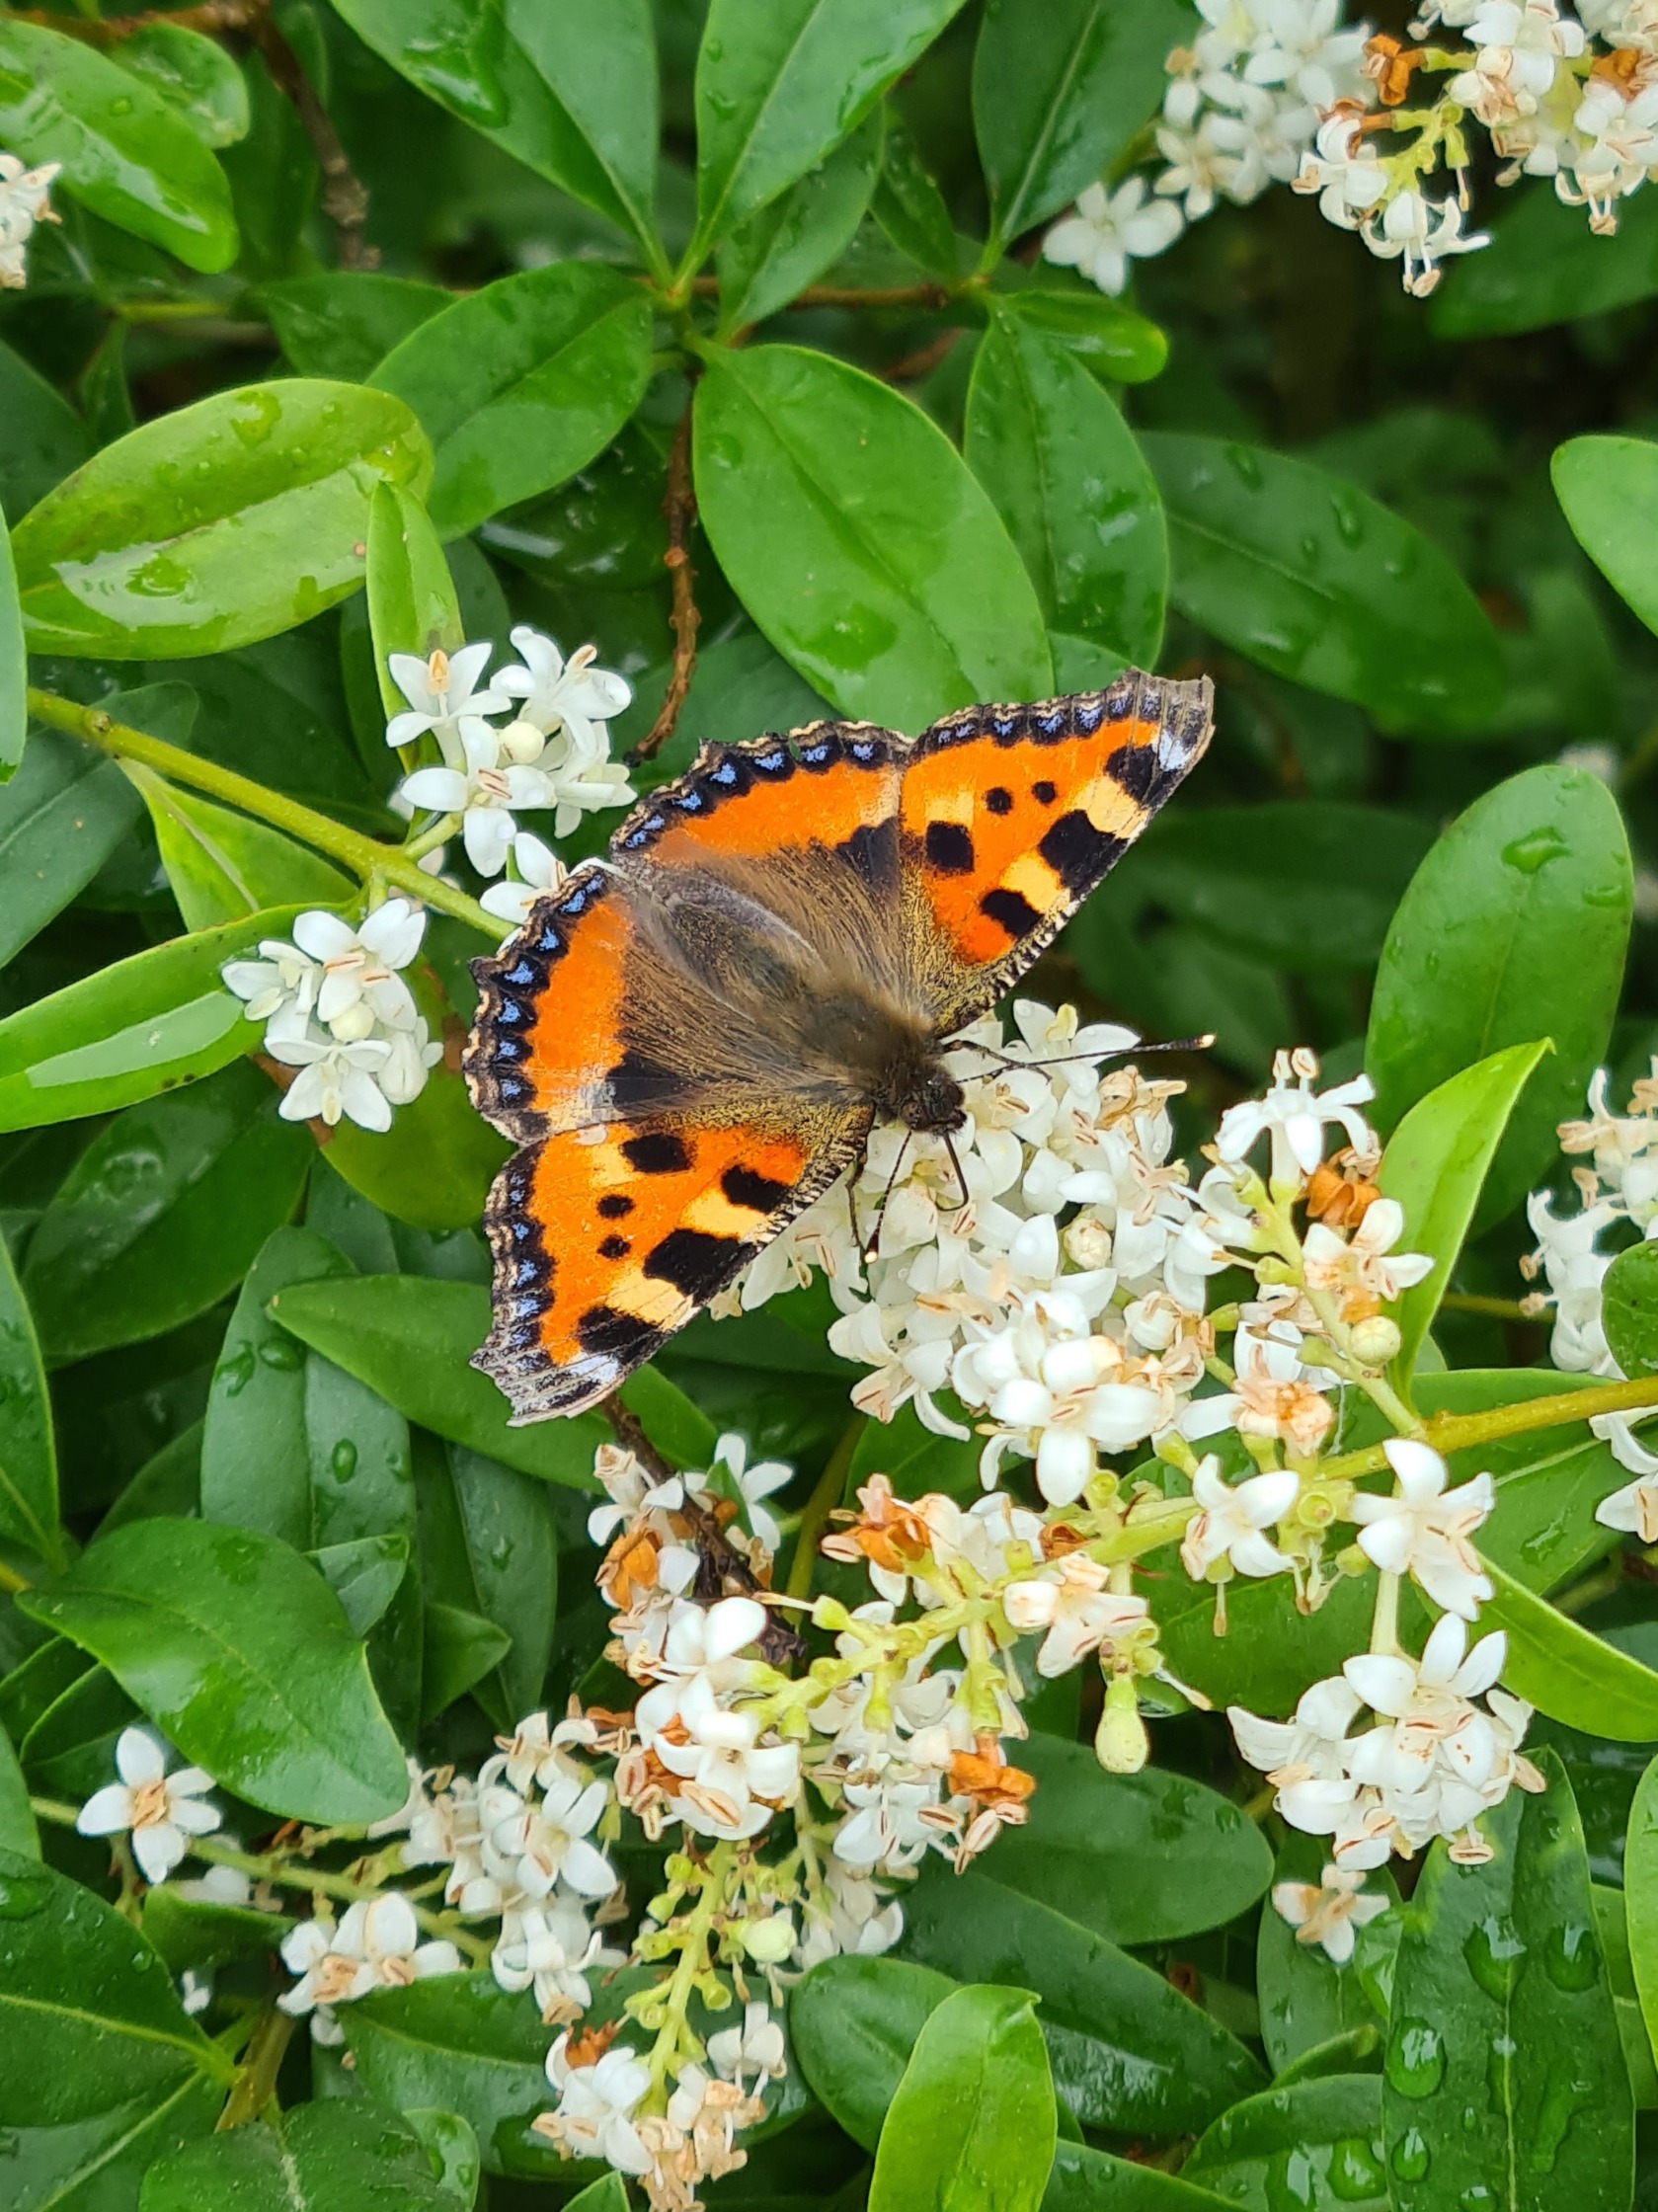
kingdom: Animalia
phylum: Arthropoda
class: Insecta
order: Lepidoptera
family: Nymphalidae
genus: Aglais
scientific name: Aglais urticae
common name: Nældens takvinge
